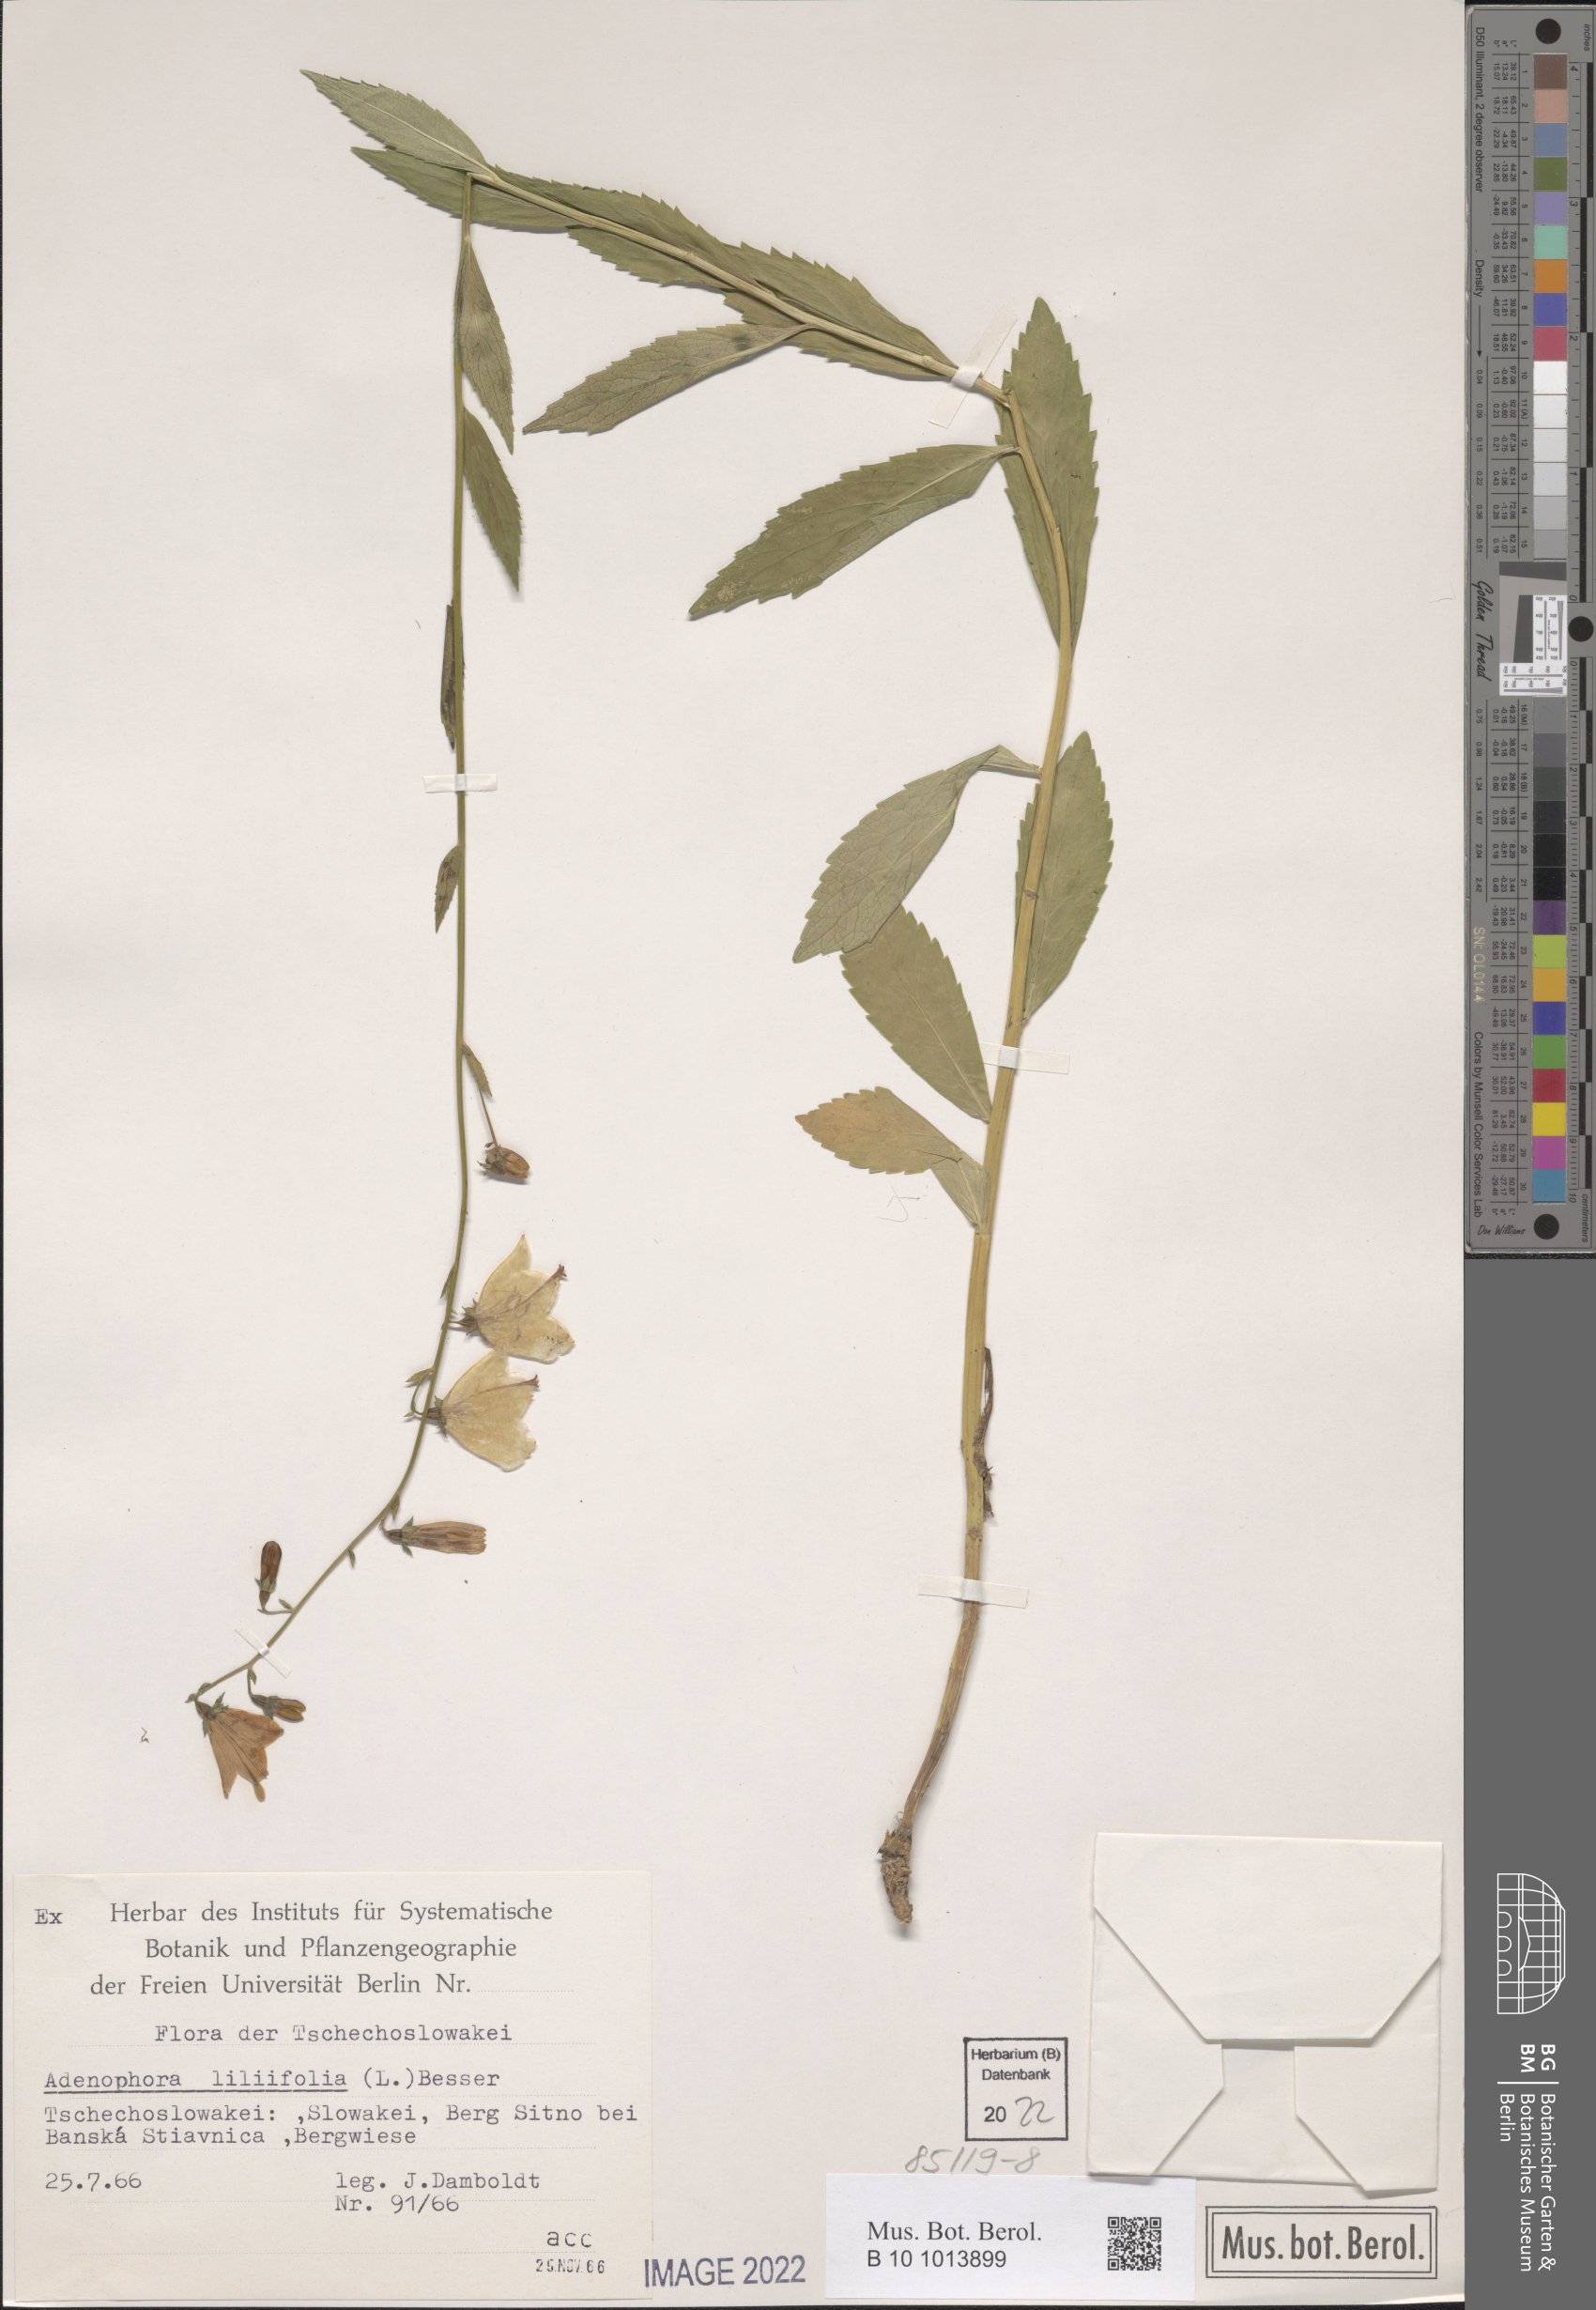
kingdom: Plantae
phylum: Tracheophyta
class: Magnoliopsida
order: Asterales
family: Campanulaceae
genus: Adenophora
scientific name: Adenophora liliifolia
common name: Lilyleaf ladybells
